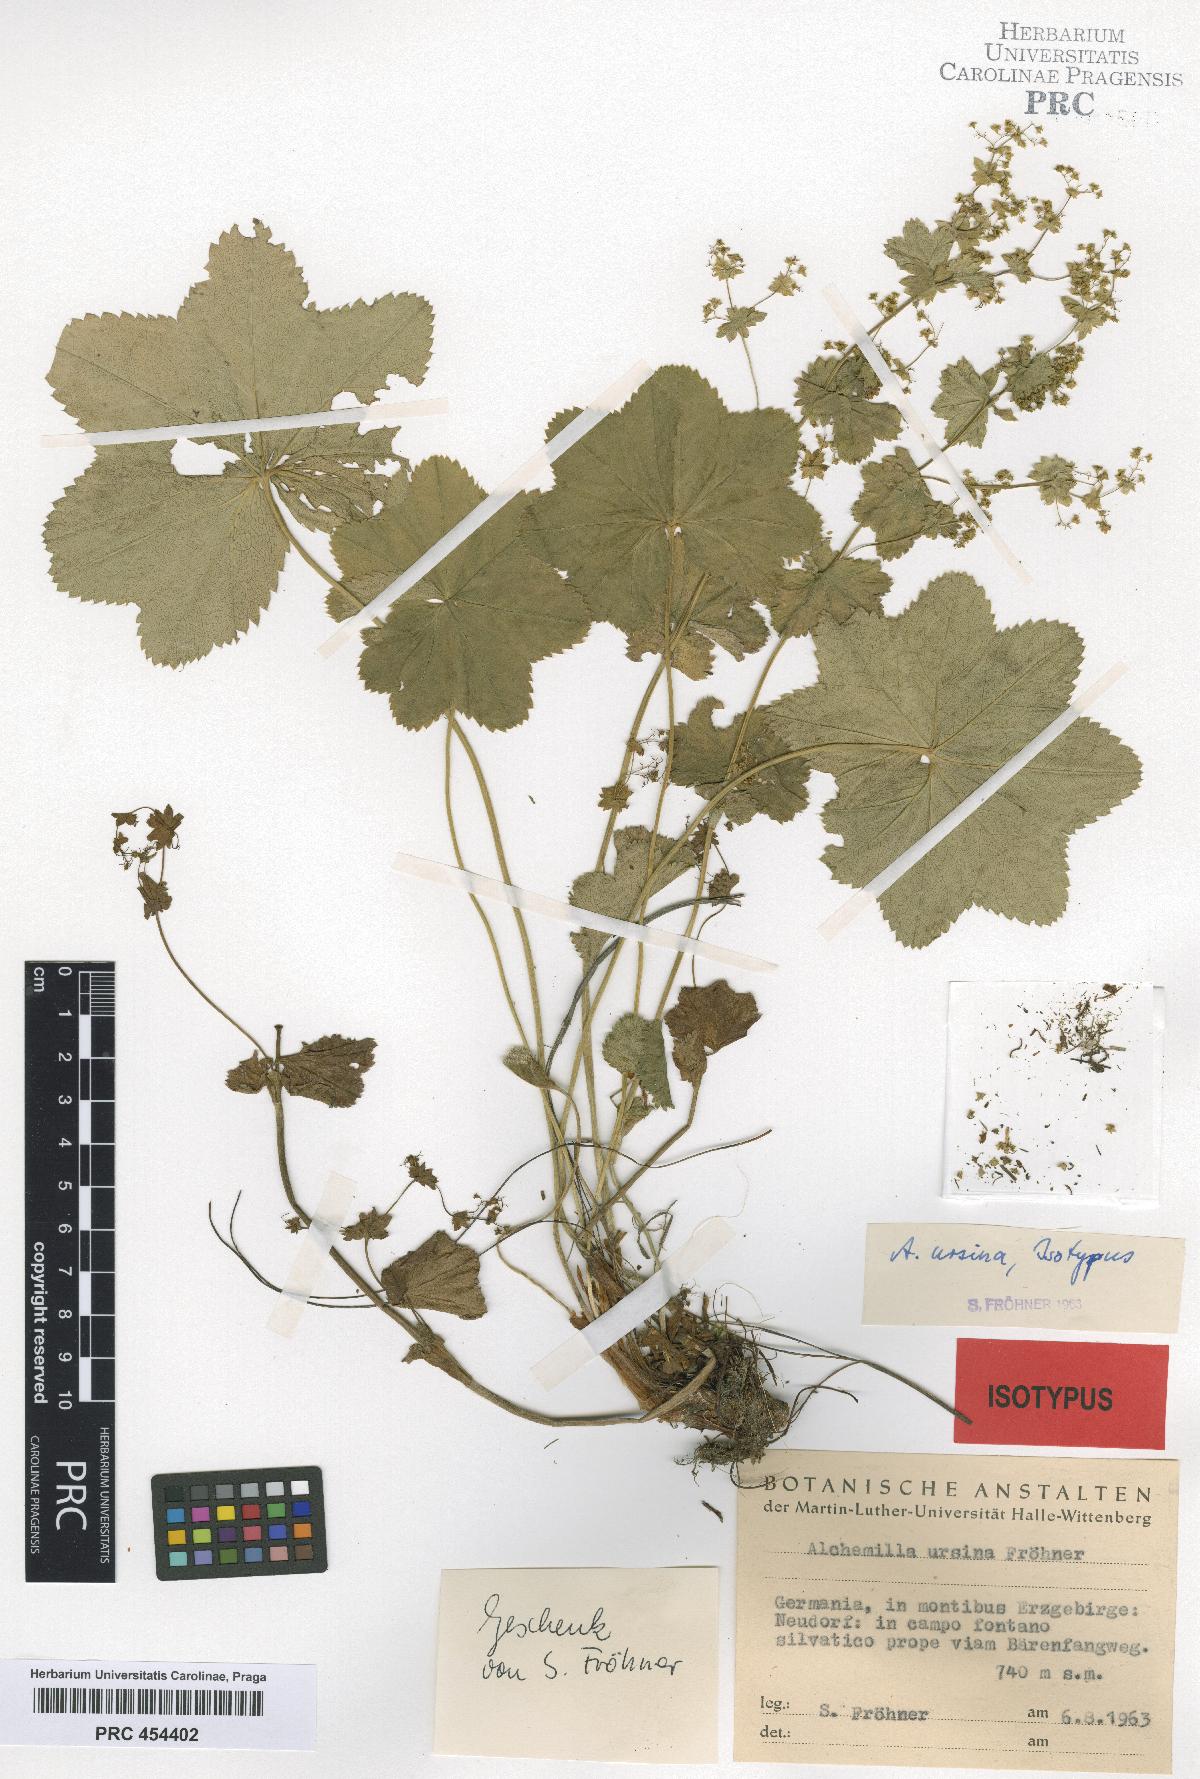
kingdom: Plantae
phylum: Tracheophyta
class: Magnoliopsida
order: Rosales
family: Rosaceae
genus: Alchemilla
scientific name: Alchemilla effusa
